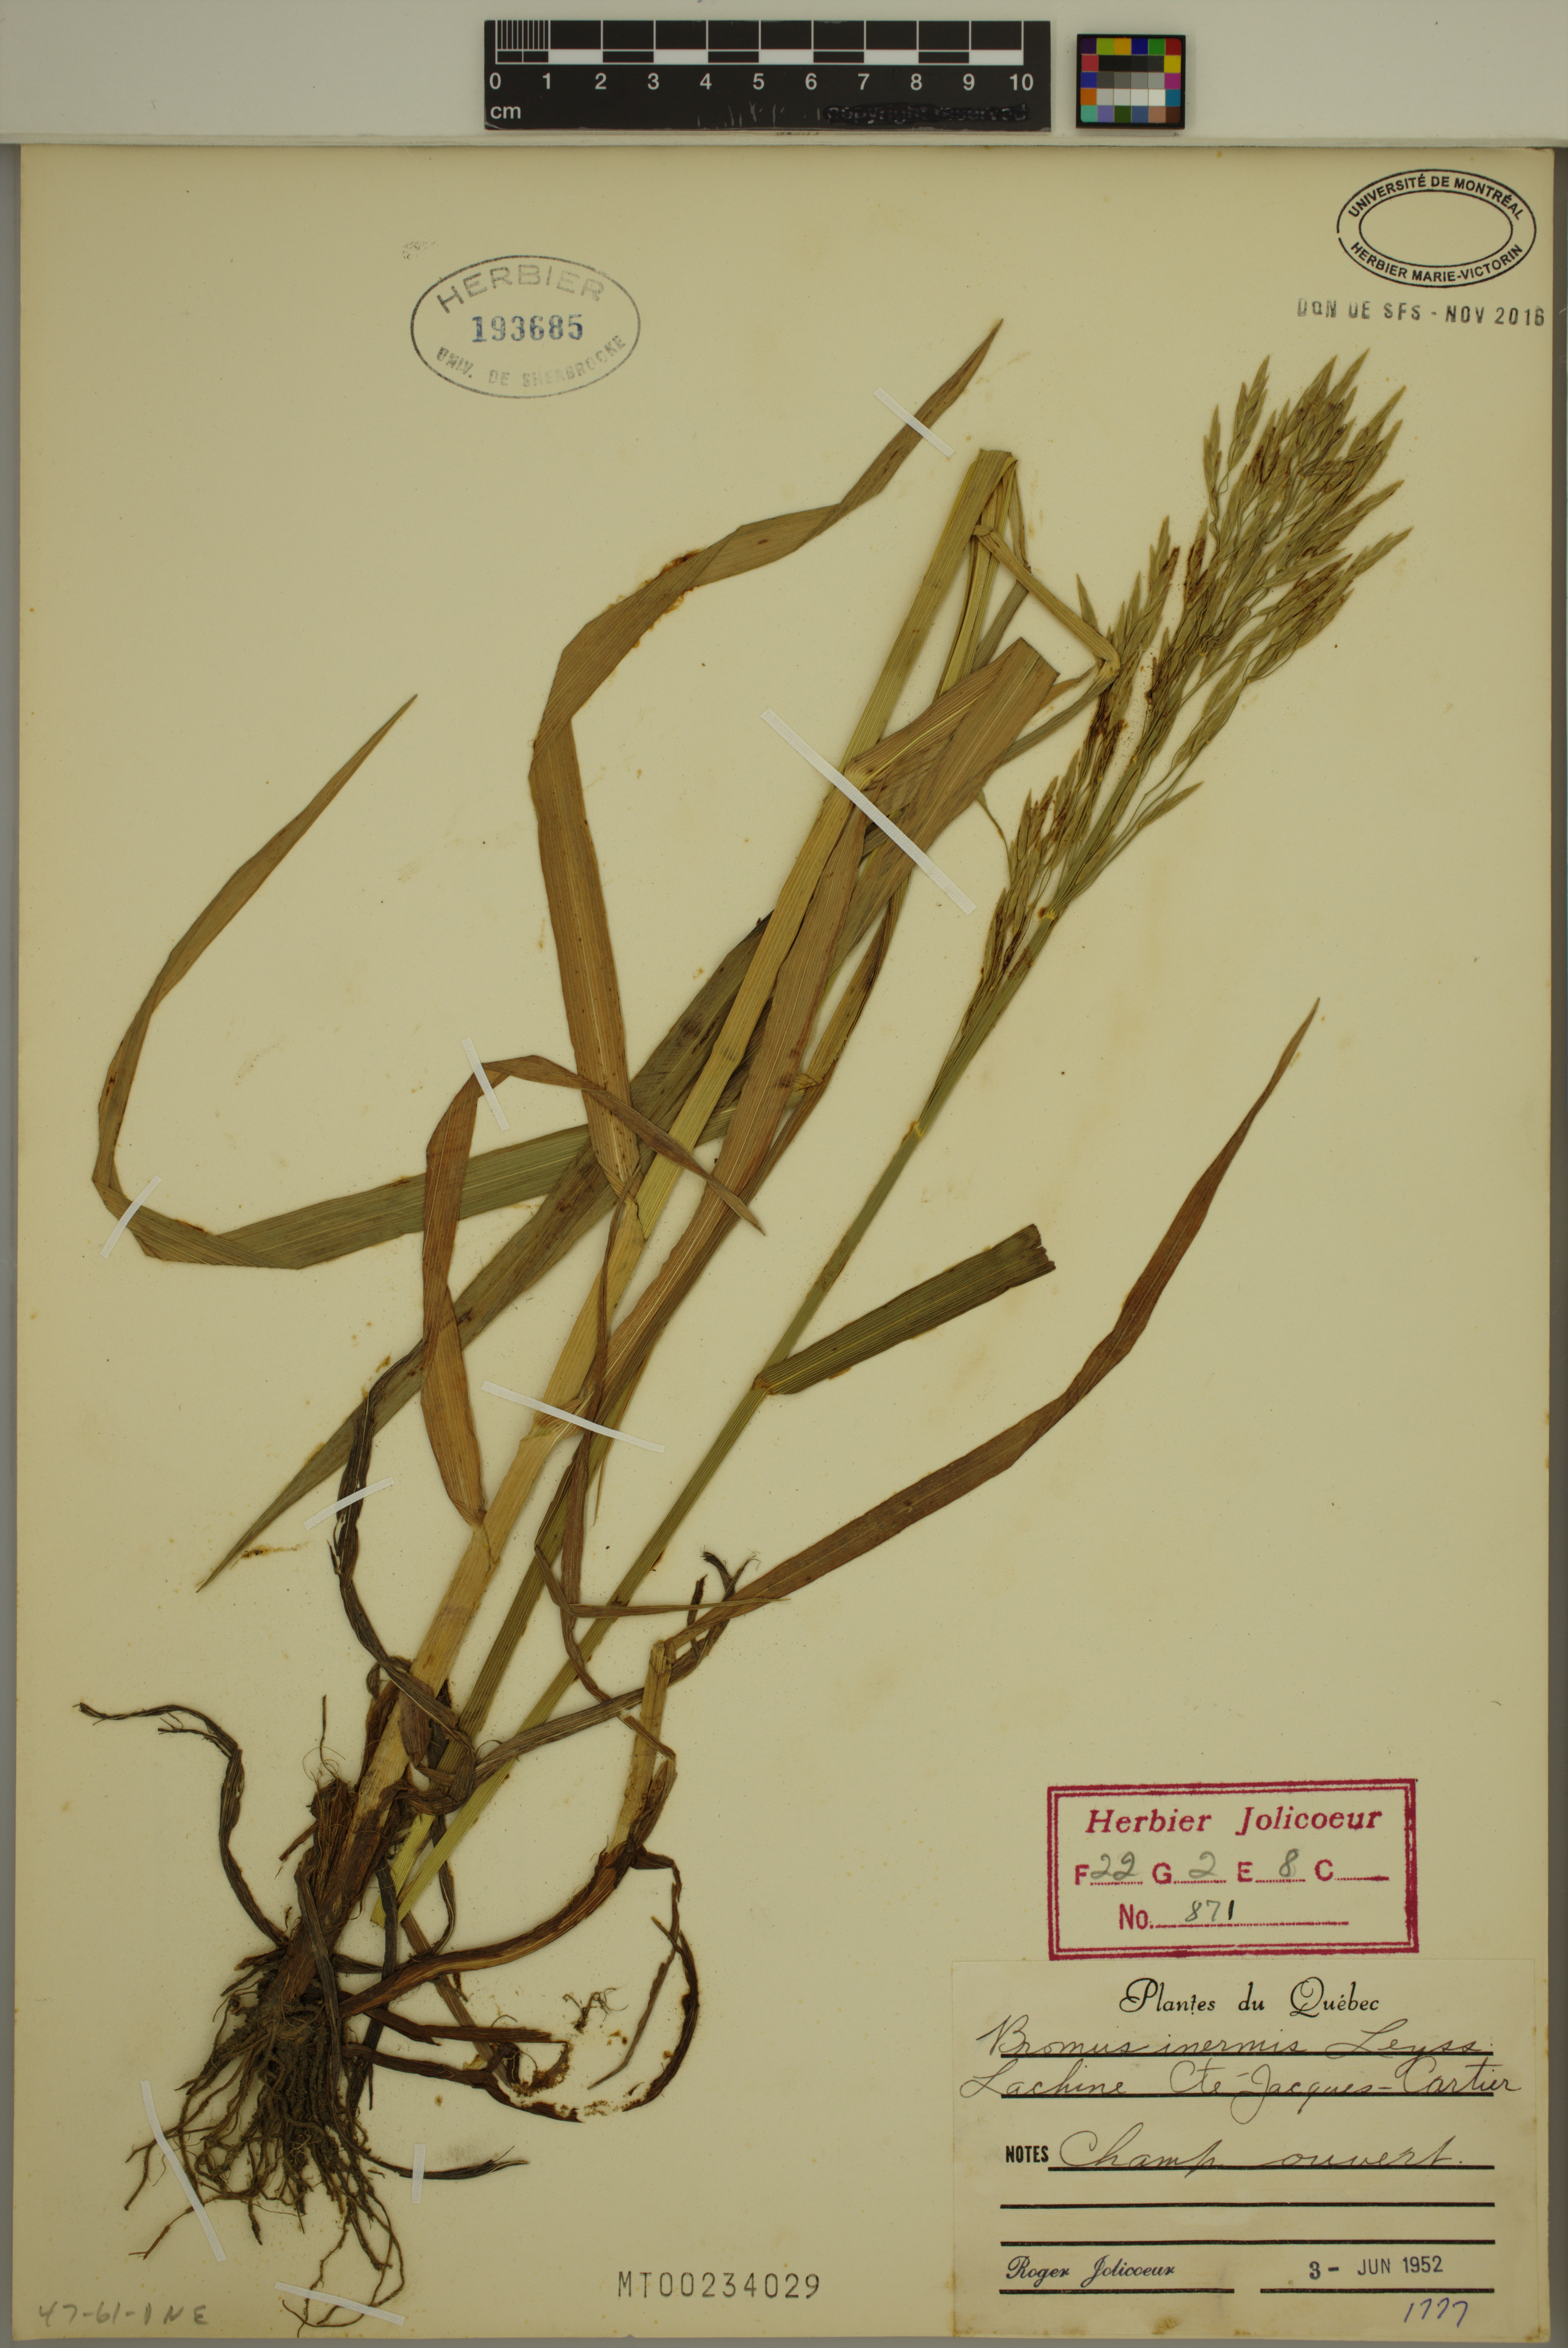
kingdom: Plantae
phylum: Tracheophyta
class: Liliopsida
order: Poales
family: Poaceae
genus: Bromus
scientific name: Bromus inermis
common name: Smooth brome
